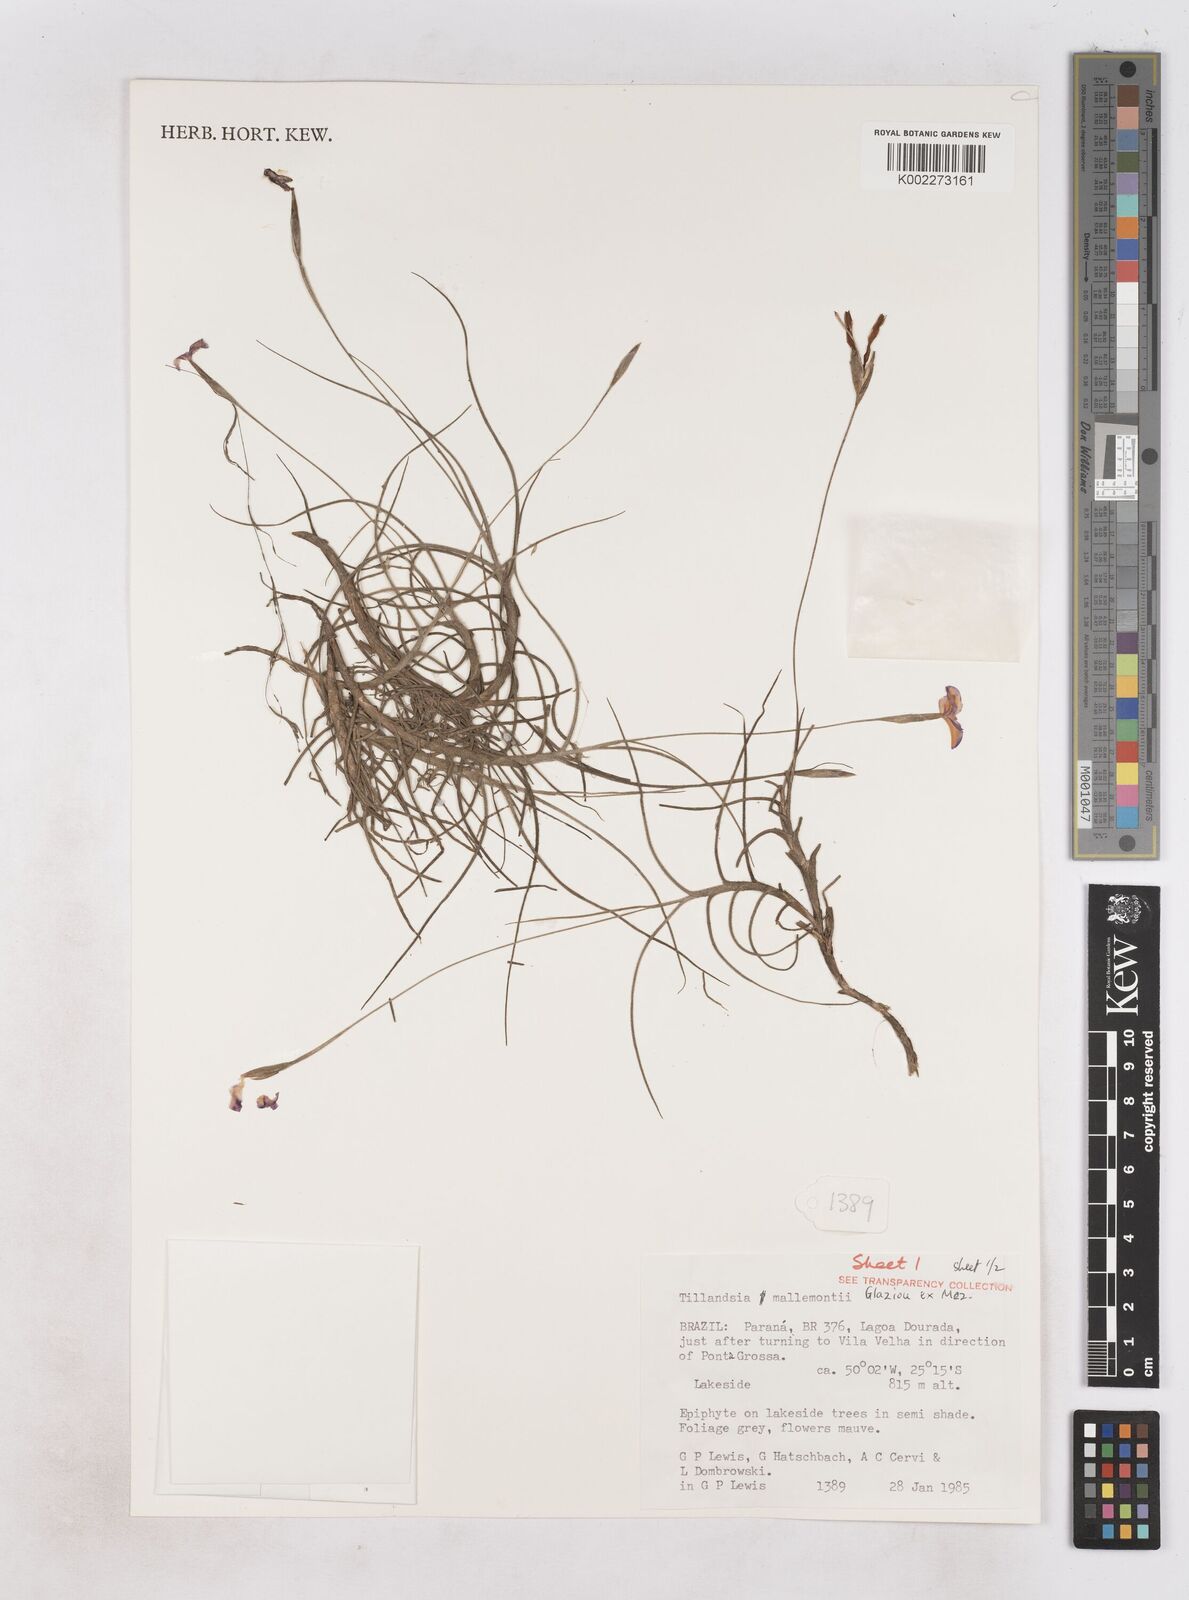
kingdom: Plantae
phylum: Tracheophyta
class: Liliopsida
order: Poales
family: Bromeliaceae
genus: Tillandsia
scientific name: Tillandsia mallemontii
